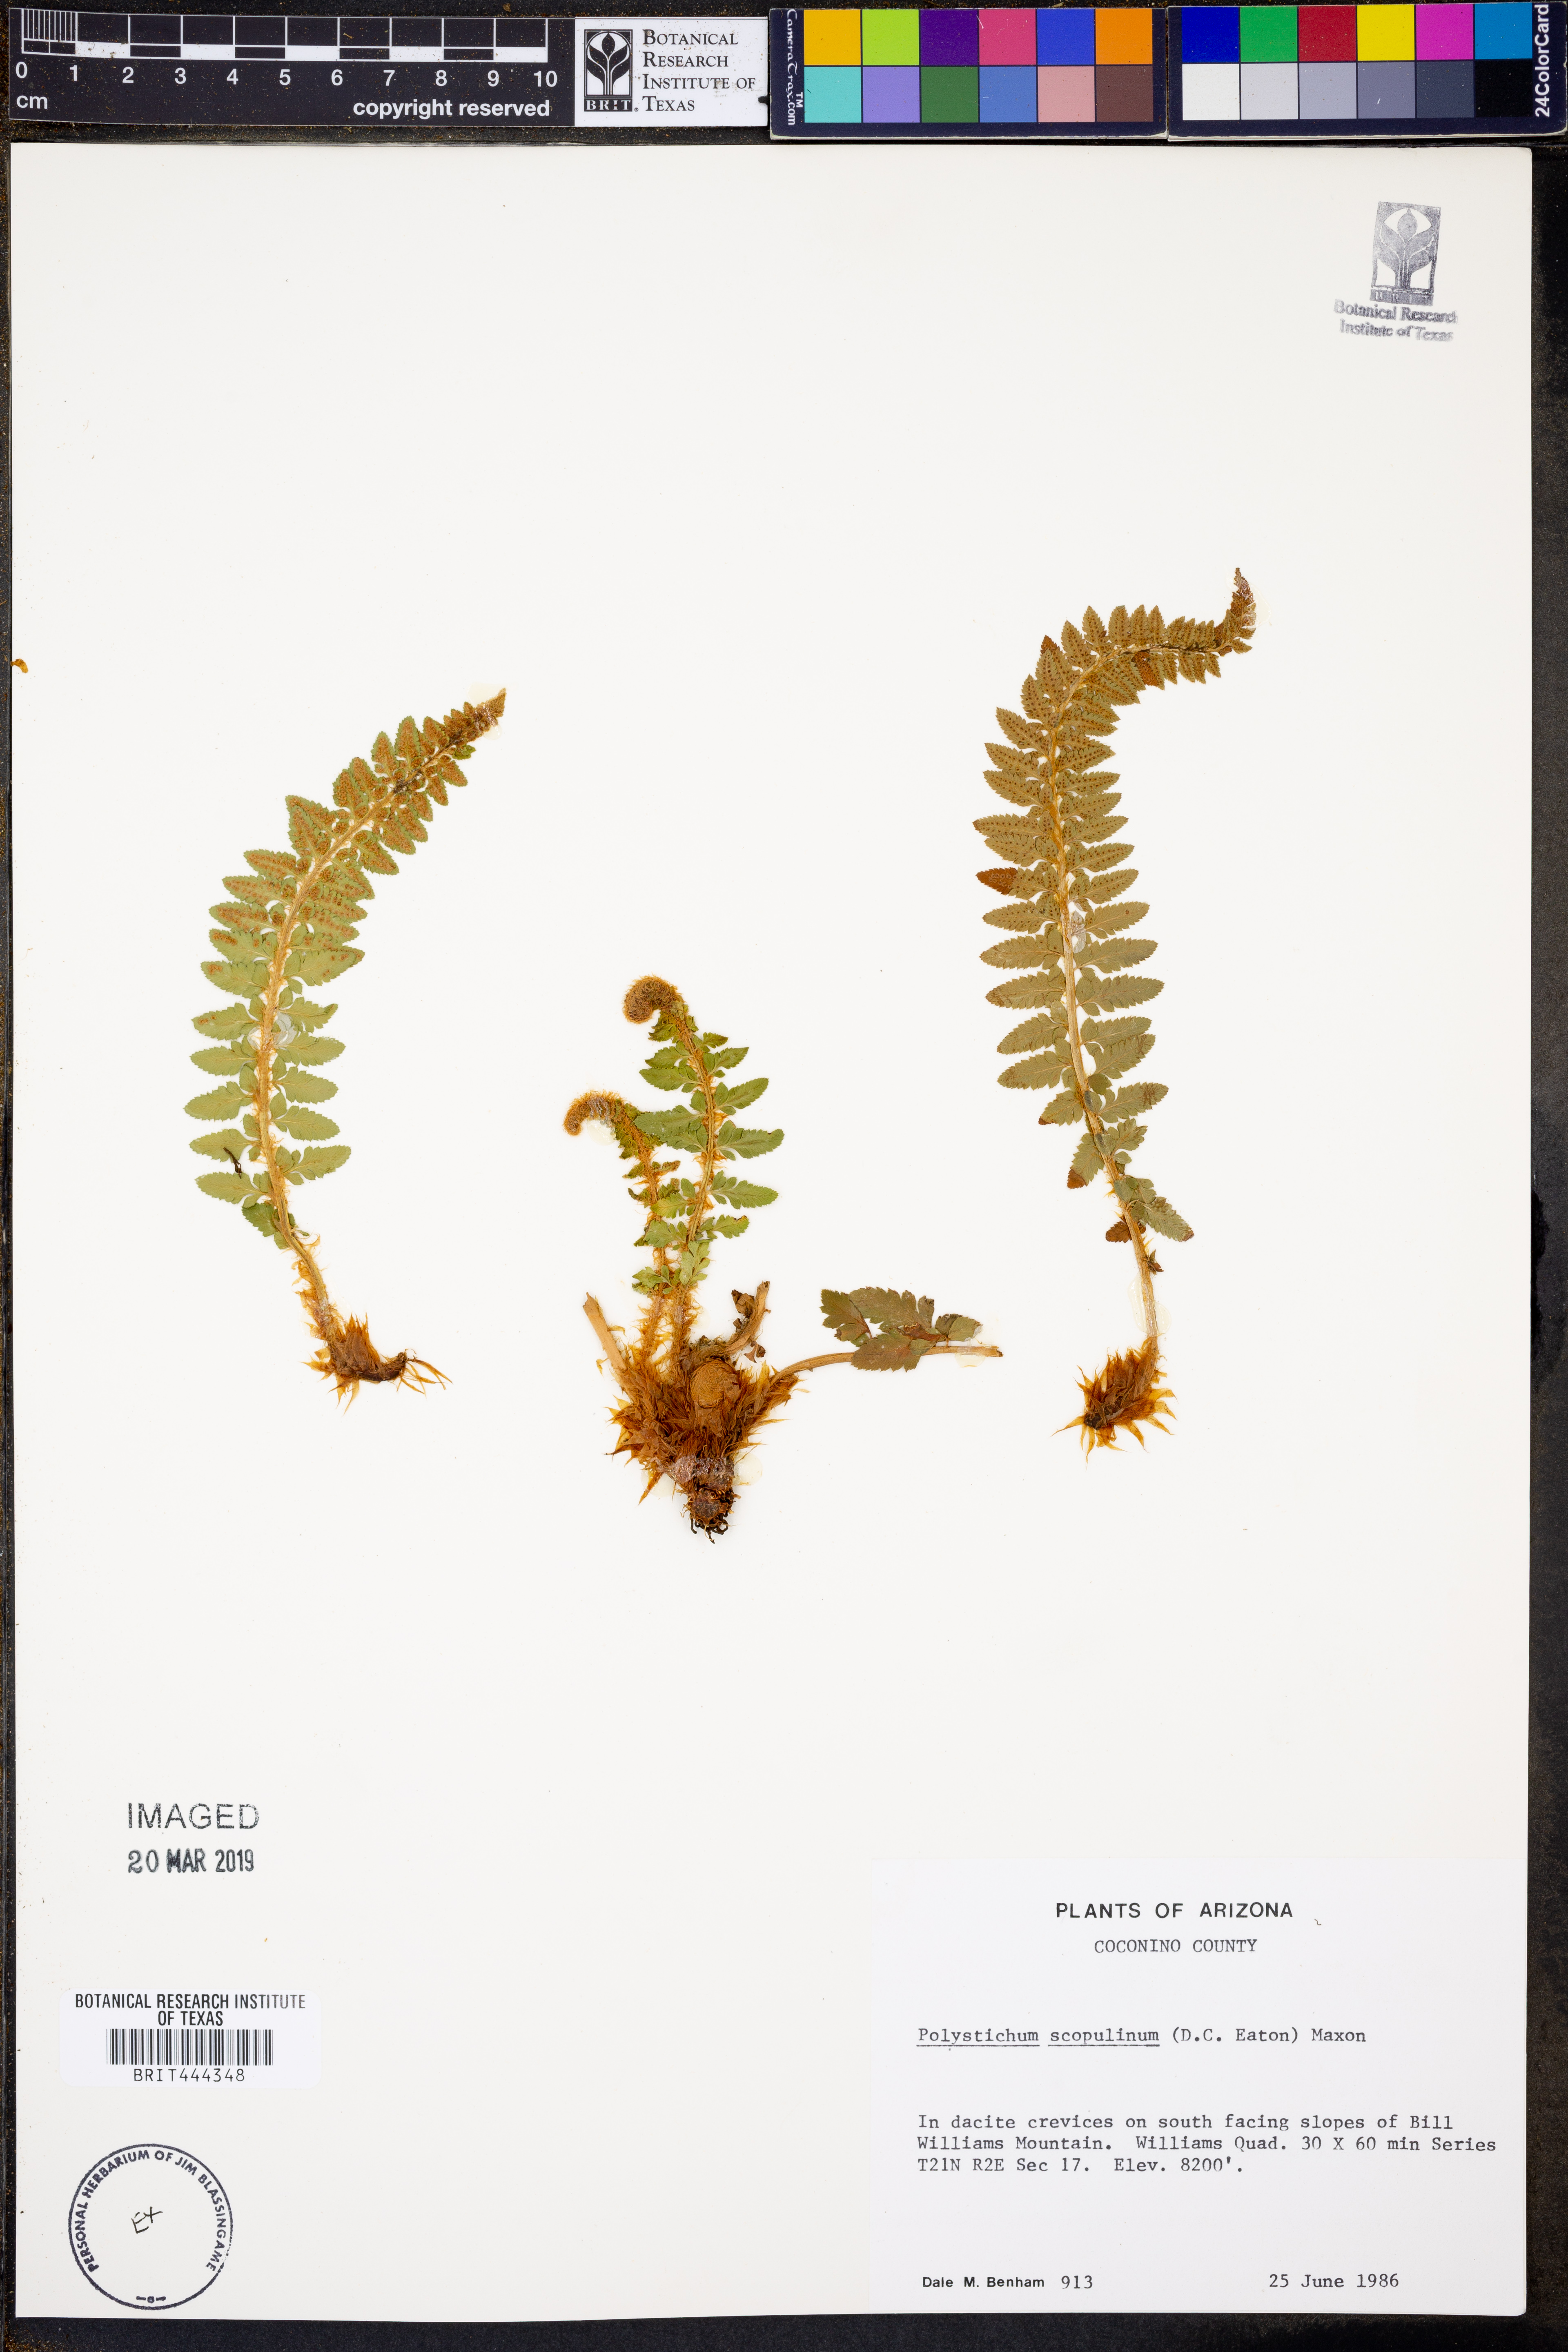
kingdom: Plantae
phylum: Tracheophyta
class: Polypodiopsida
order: Polypodiales
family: Dryopteridaceae
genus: Polystichum
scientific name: Polystichum scopulinum
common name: Eaton's shield fern
